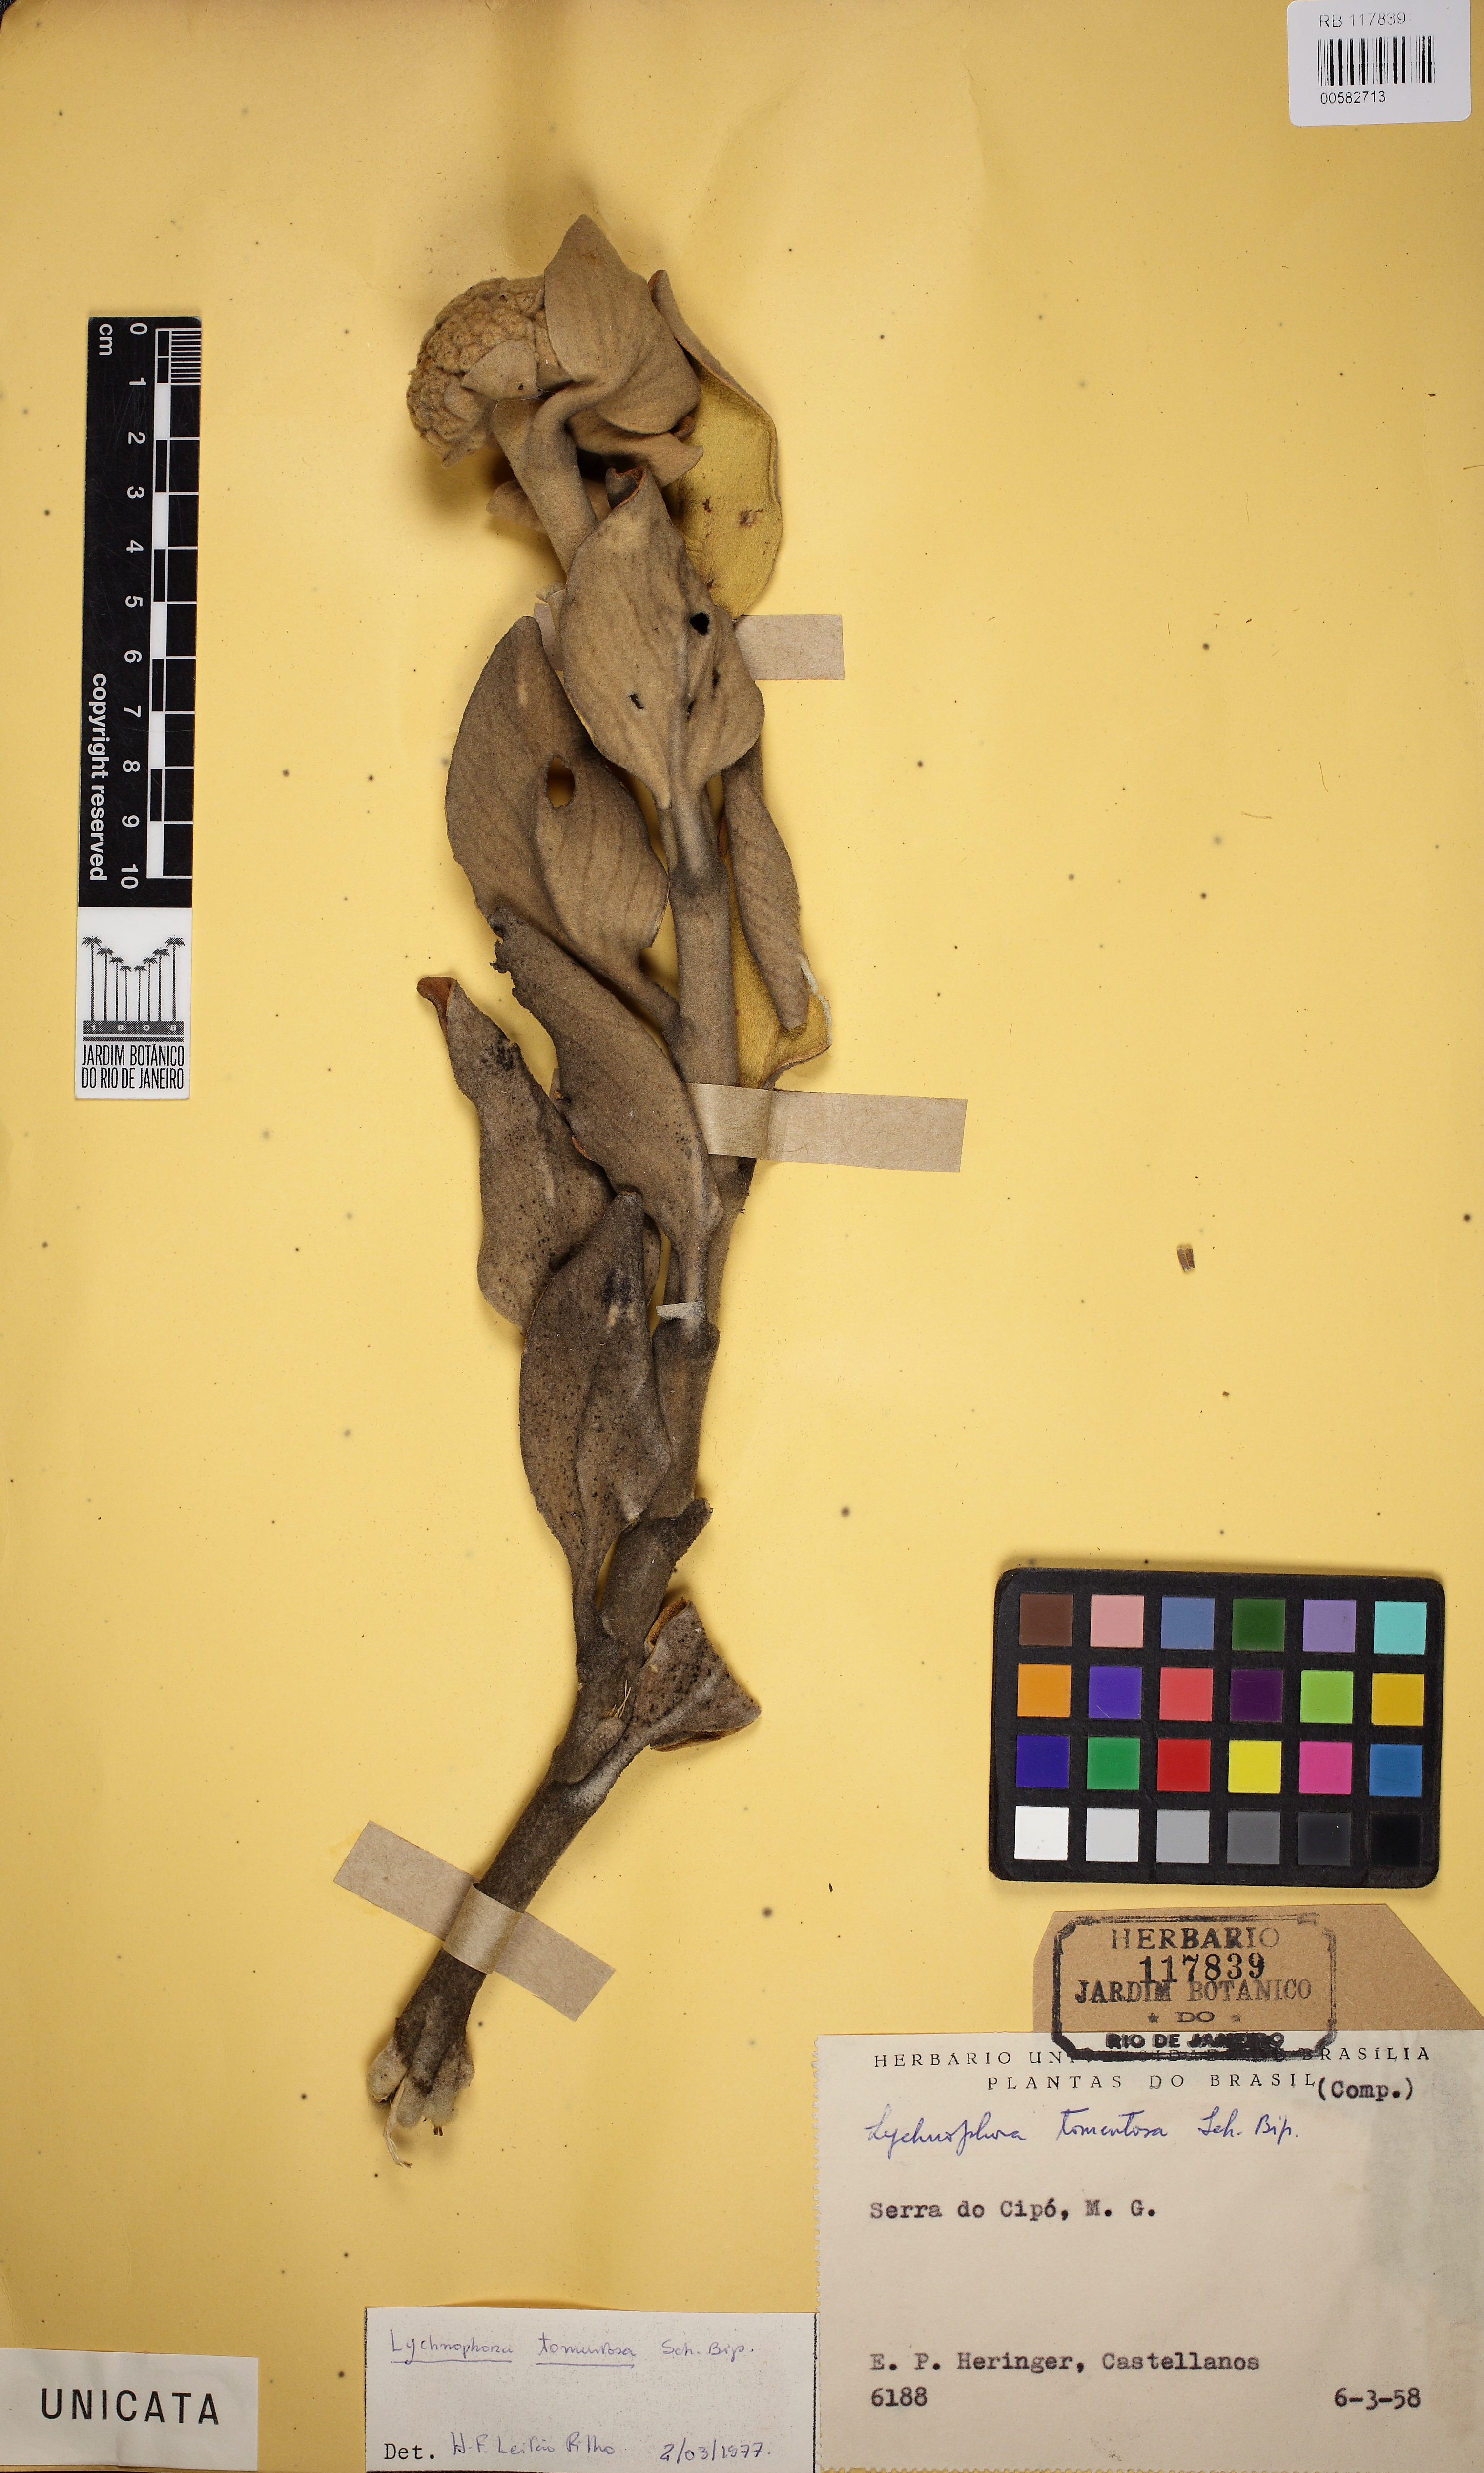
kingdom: Plantae
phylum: Tracheophyta
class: Magnoliopsida
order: Asterales
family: Asteraceae
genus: Lychnocephalus
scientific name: Lychnocephalus tomentosus
